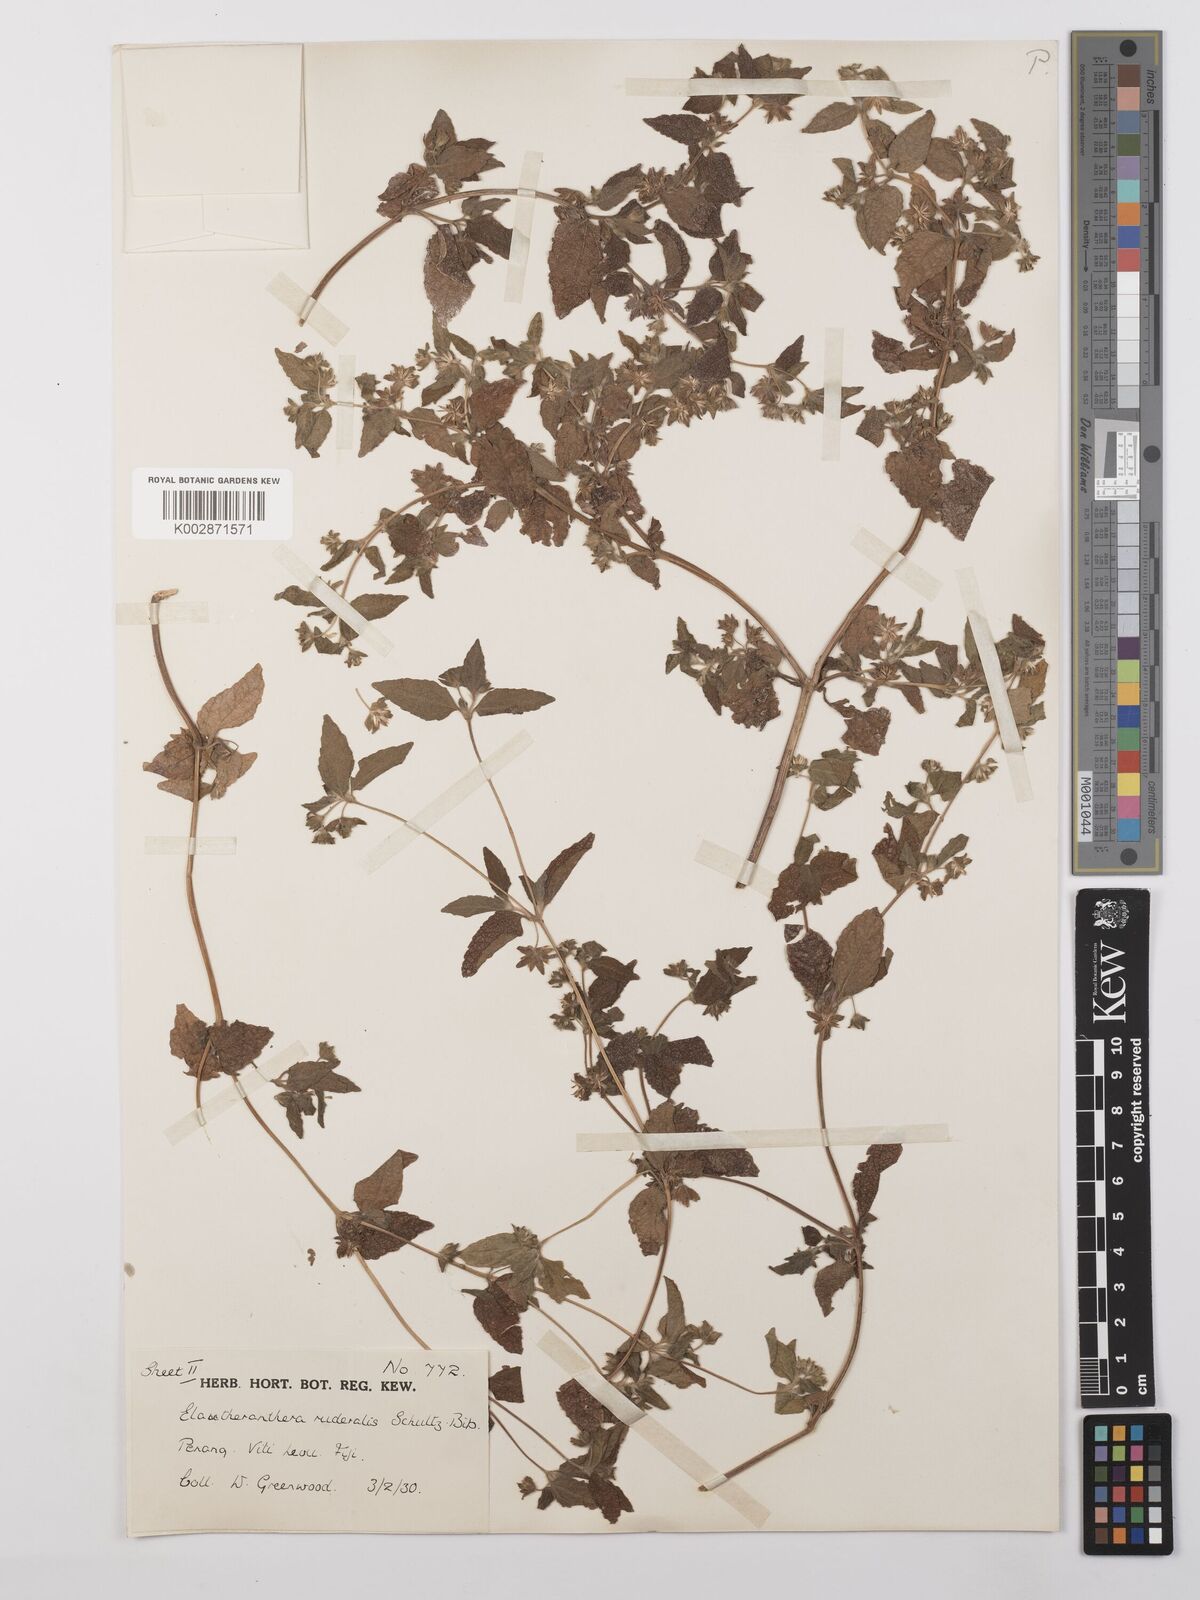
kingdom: Plantae
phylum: Tracheophyta
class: Magnoliopsida
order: Asterales
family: Asteraceae
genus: Eleutheranthera
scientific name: Eleutheranthera ruderalis
